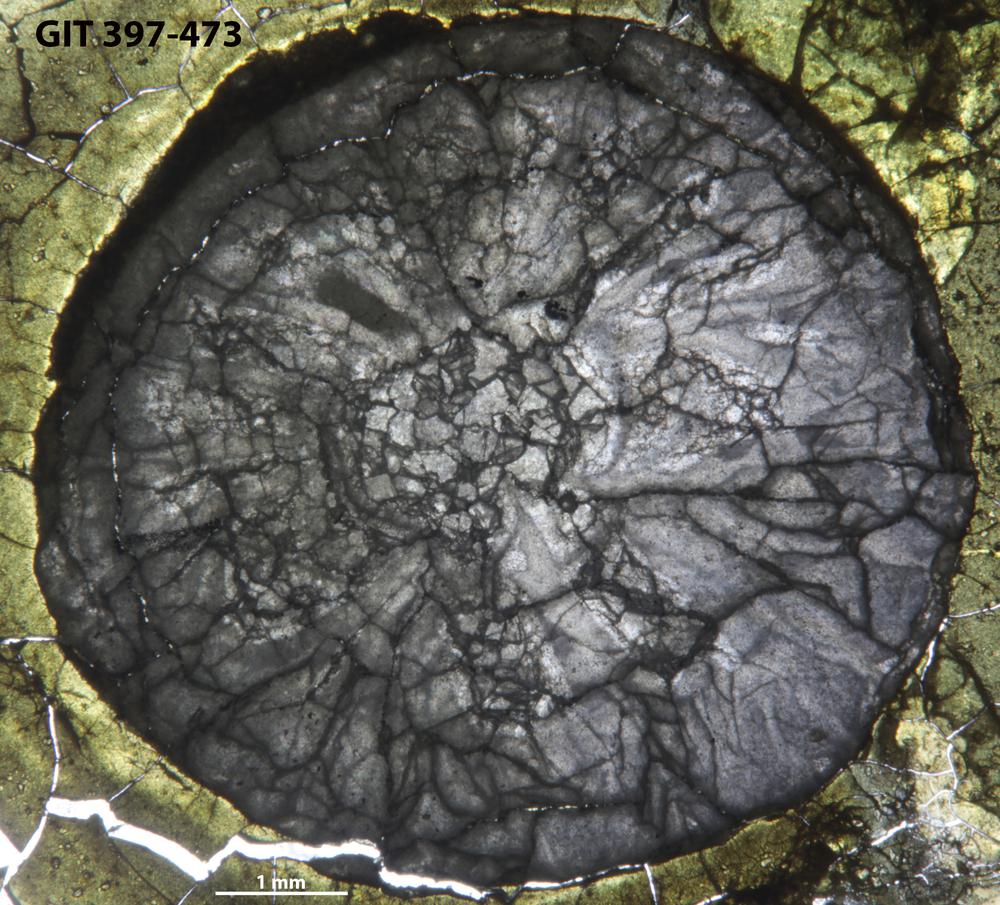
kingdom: Animalia
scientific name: Animalia
